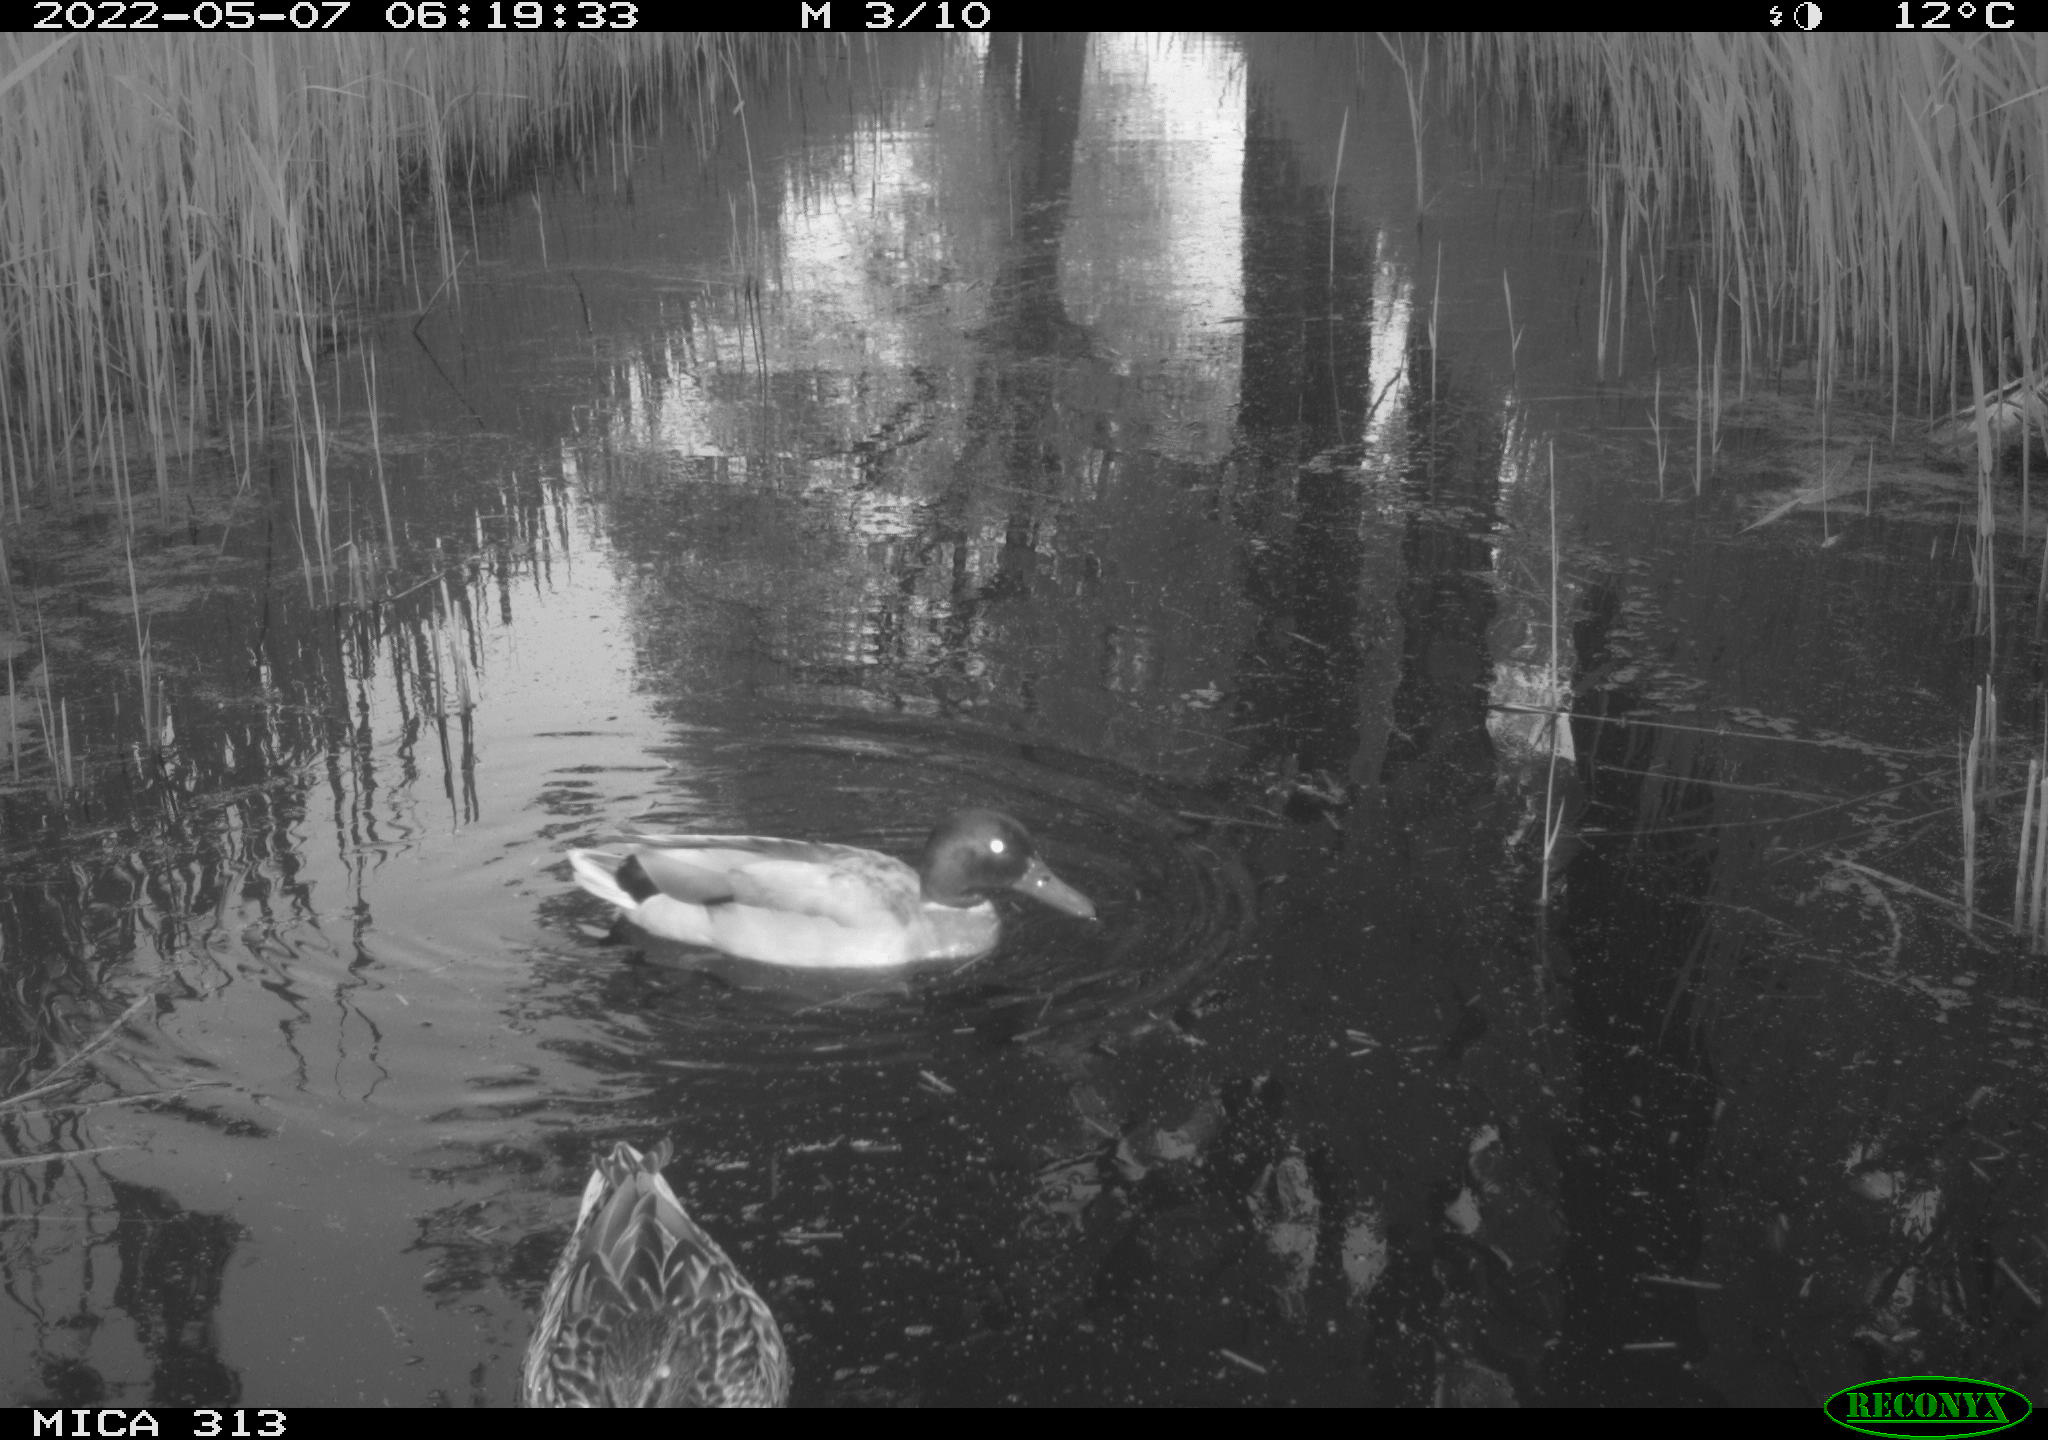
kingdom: Animalia
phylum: Chordata
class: Aves
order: Anseriformes
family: Anatidae
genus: Anas
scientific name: Anas platyrhynchos
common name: Mallard
